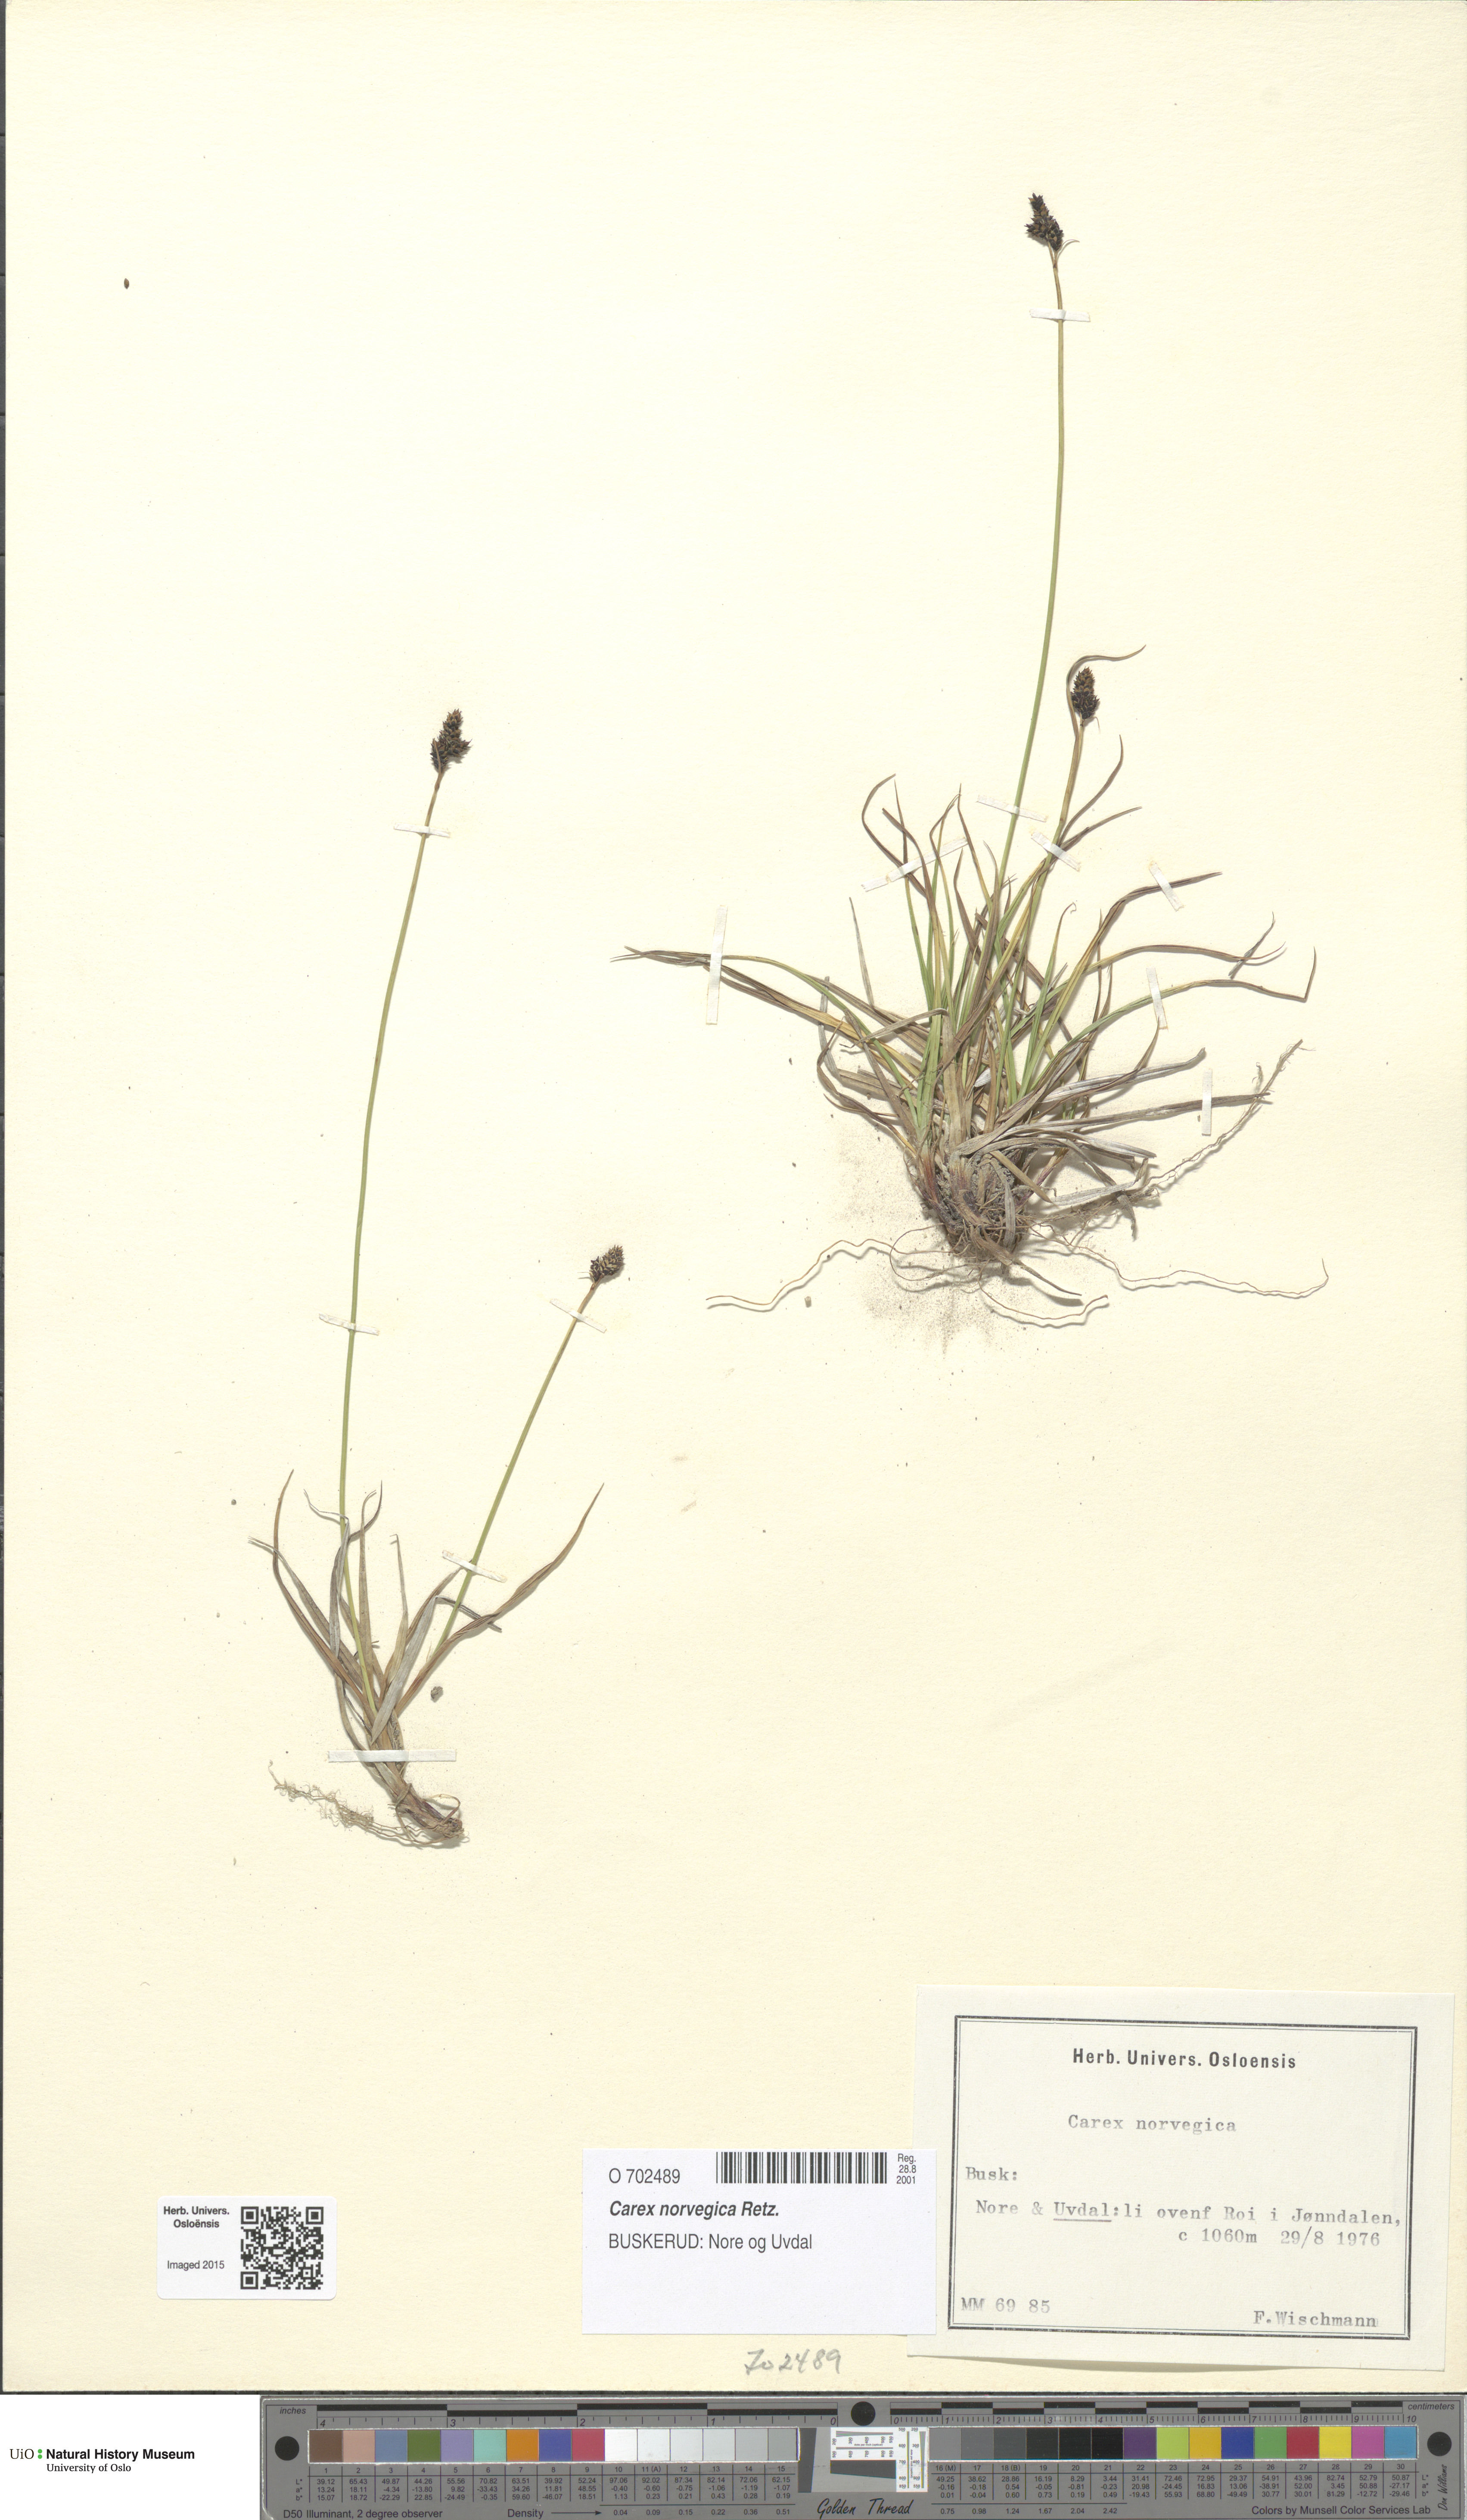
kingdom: Plantae
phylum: Tracheophyta
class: Liliopsida
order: Poales
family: Cyperaceae
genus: Carex
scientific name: Carex norvegica
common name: Close-headed alpine-sedge
